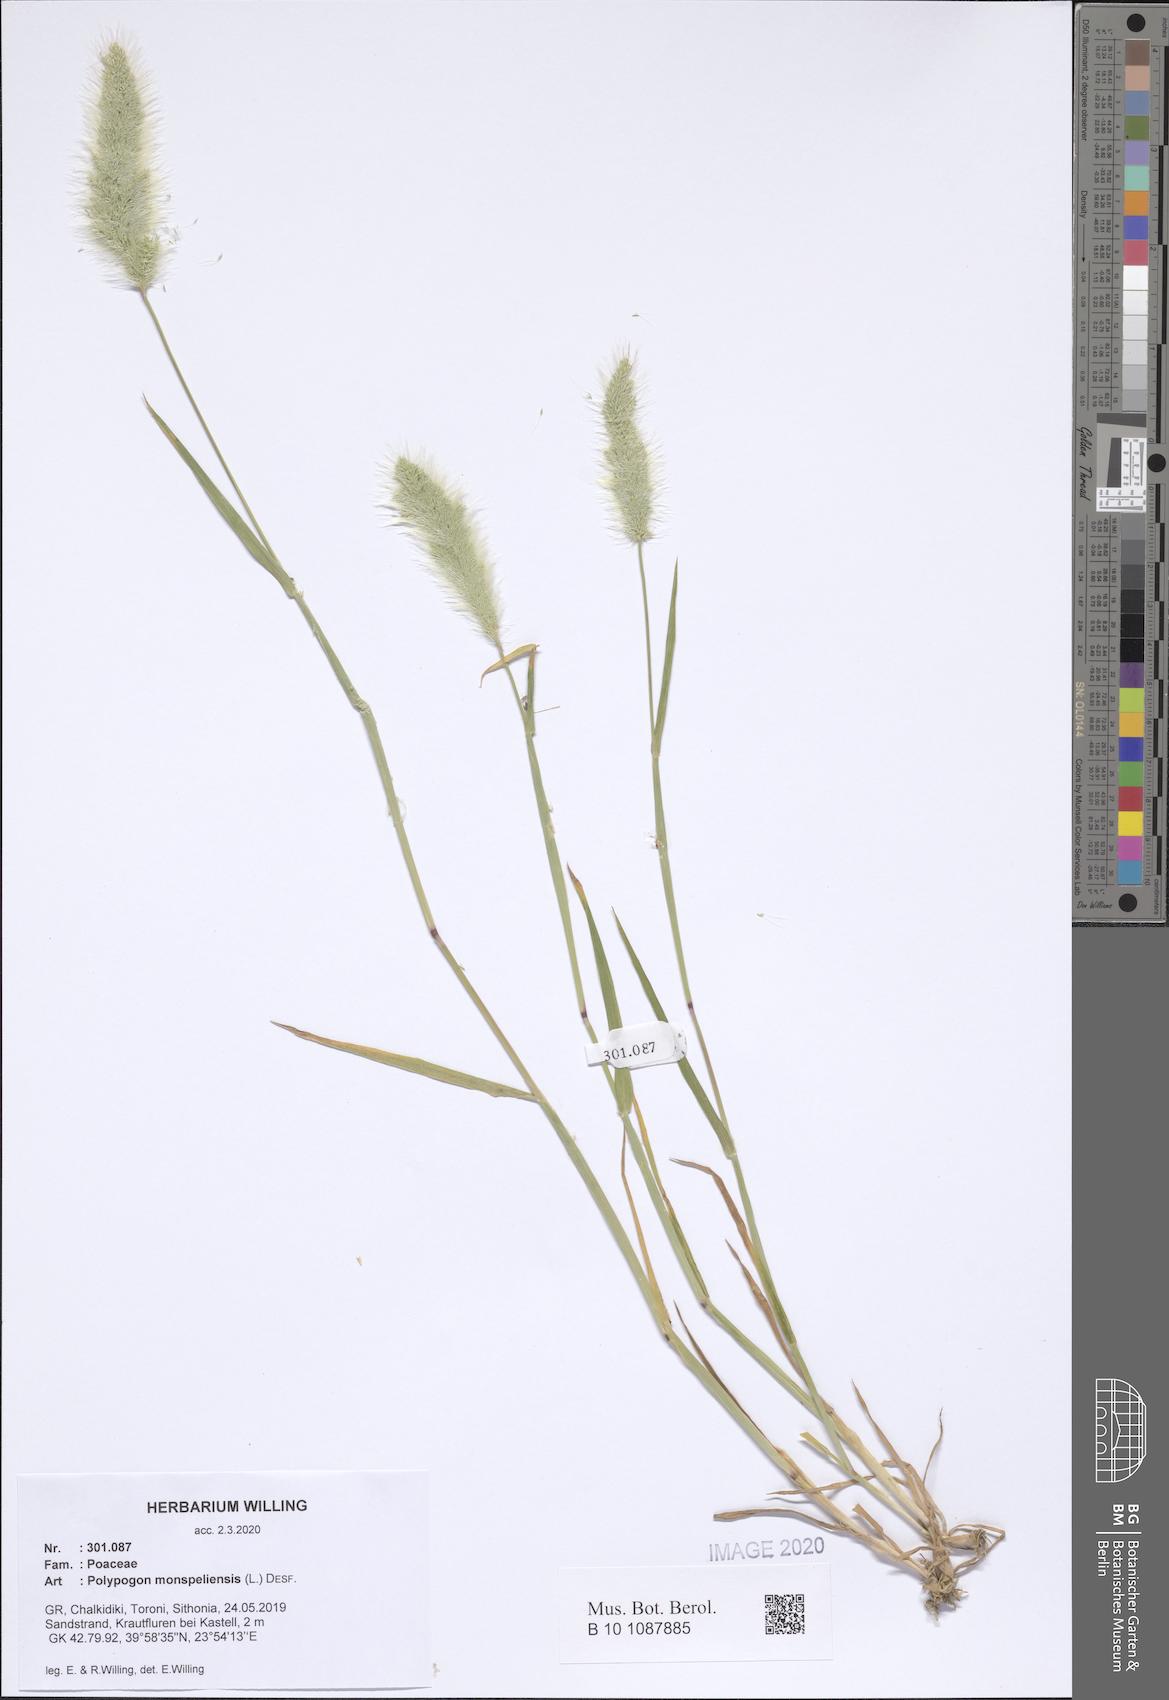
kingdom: Plantae
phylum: Tracheophyta
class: Liliopsida
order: Poales
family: Poaceae
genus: Polypogon
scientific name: Polypogon monspeliensis
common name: Annual rabbitsfoot grass
